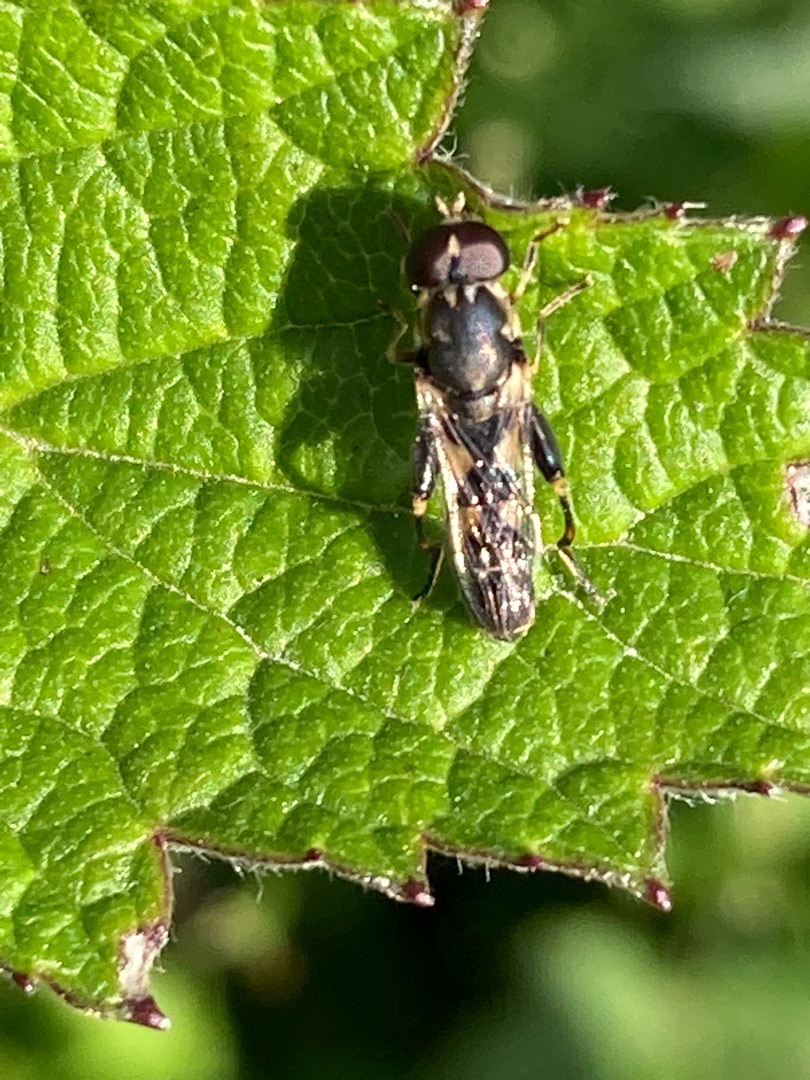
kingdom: Animalia
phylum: Arthropoda
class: Insecta
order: Diptera
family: Syrphidae
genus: Syritta
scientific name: Syritta pipiens
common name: Kompost-svirreflue
